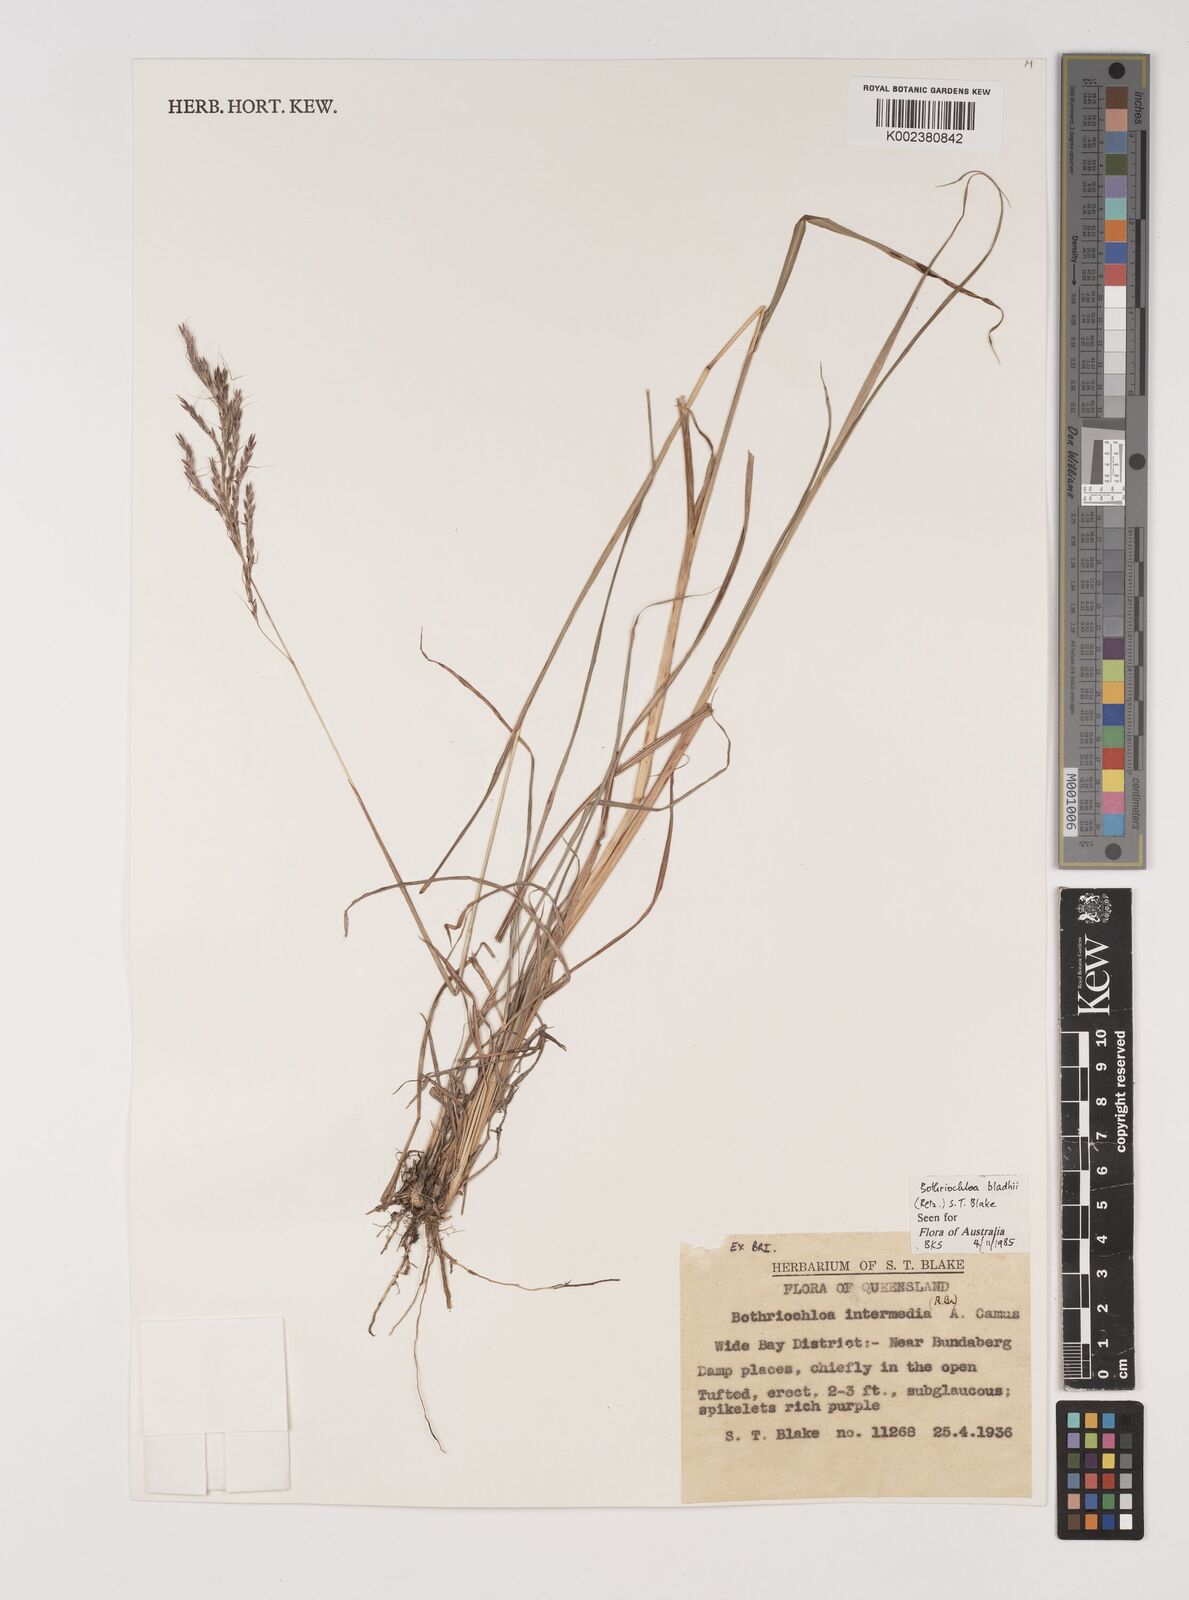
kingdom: Plantae
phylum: Tracheophyta
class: Liliopsida
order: Poales
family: Poaceae
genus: Bothriochloa
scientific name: Bothriochloa bladhii
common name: Caucasian bluestem
